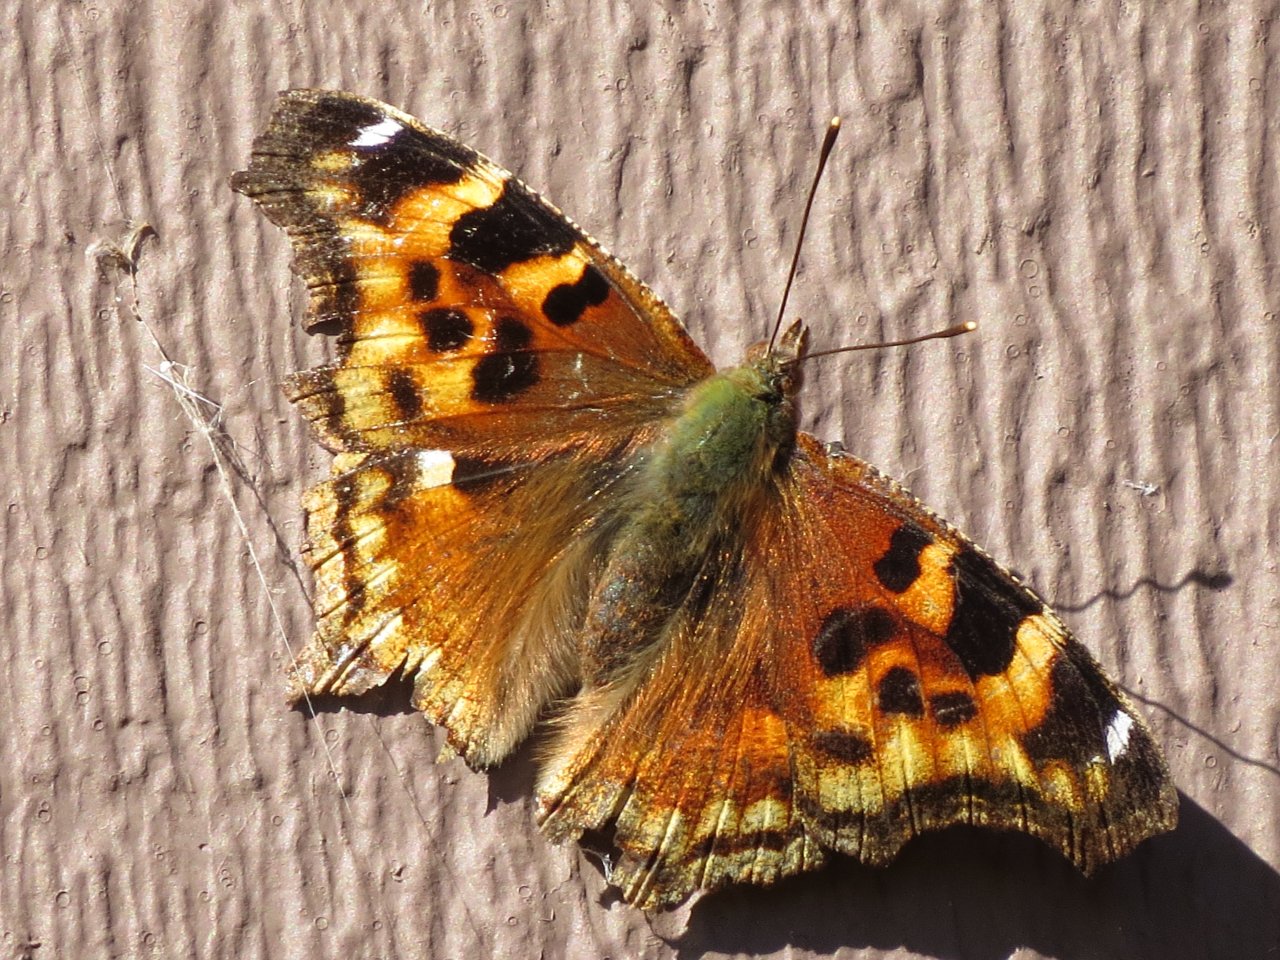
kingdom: Animalia
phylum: Arthropoda
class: Insecta
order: Lepidoptera
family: Nymphalidae
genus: Polygonia
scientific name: Polygonia vaualbum
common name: Compton Tortoiseshell
